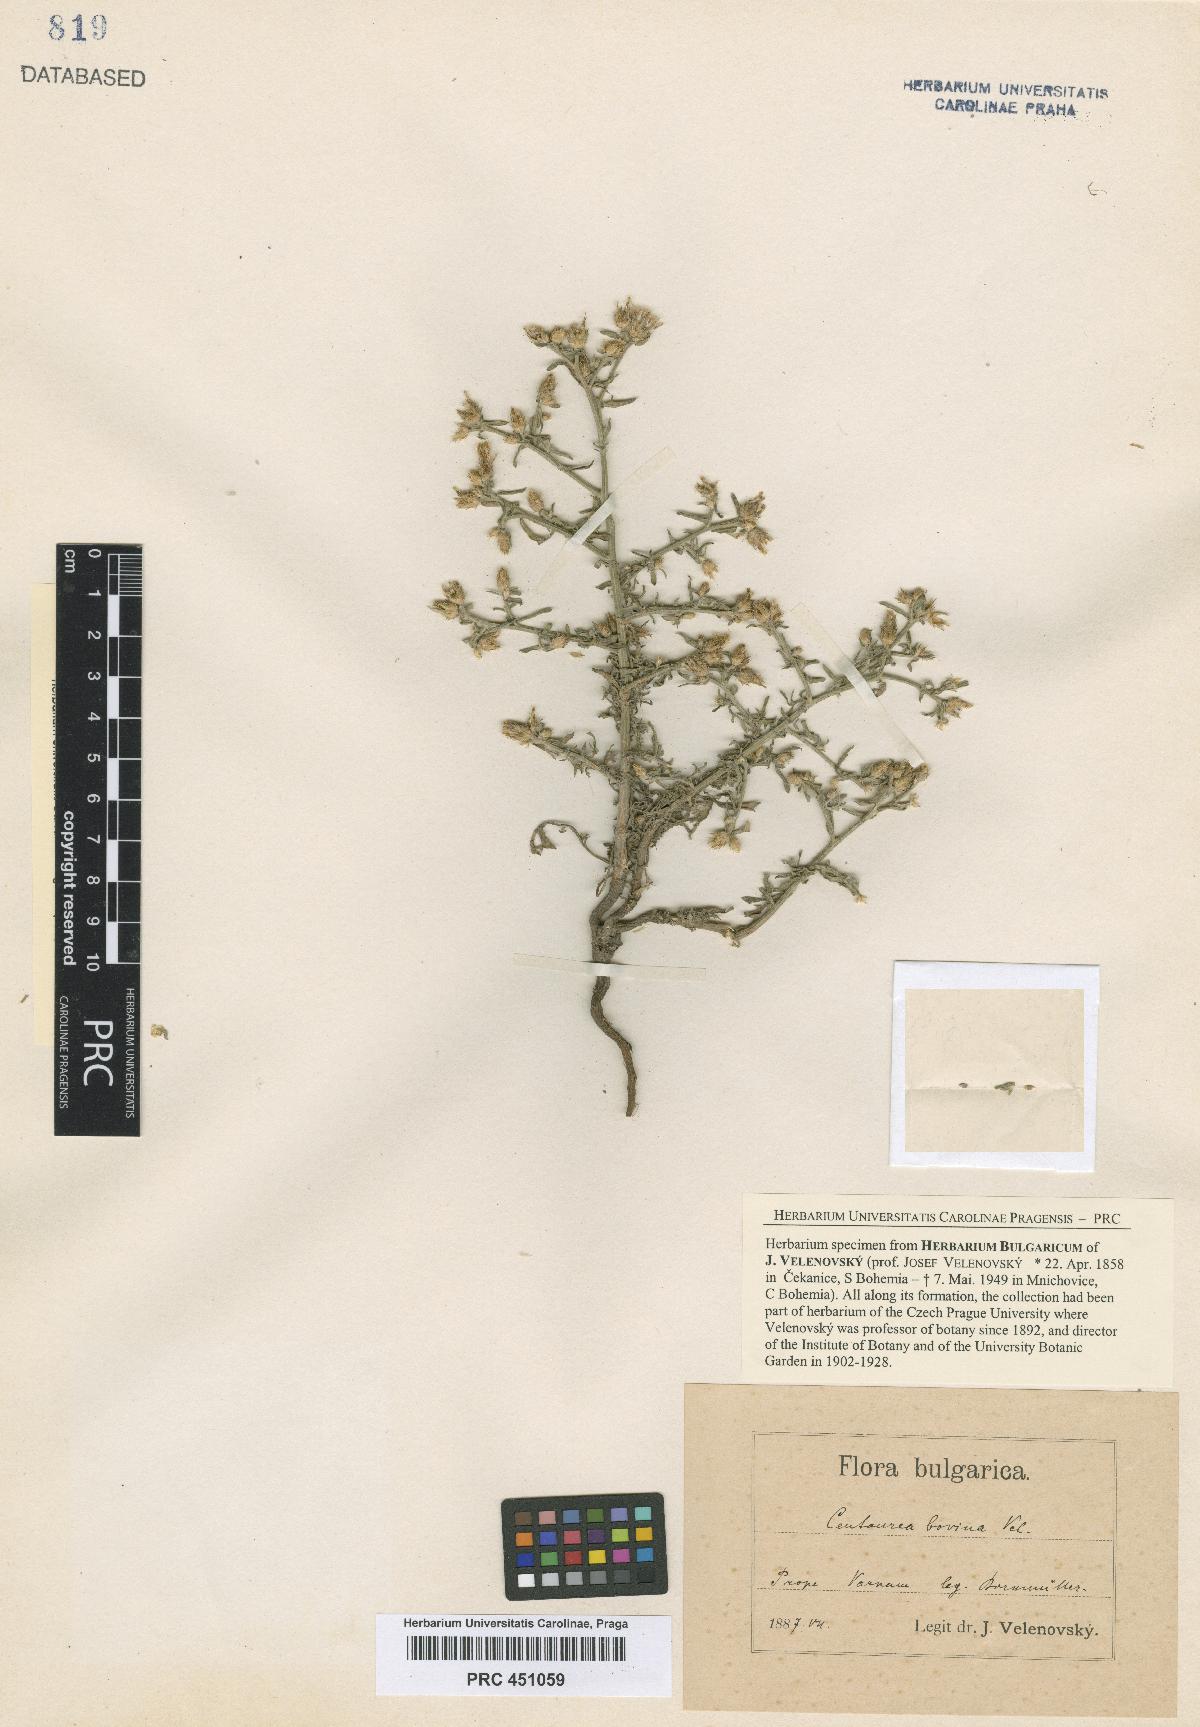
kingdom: Plantae
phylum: Tracheophyta
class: Magnoliopsida
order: Asterales
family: Asteraceae
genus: Centaurea
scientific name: Centaurea bovina
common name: Pasture knapweed
